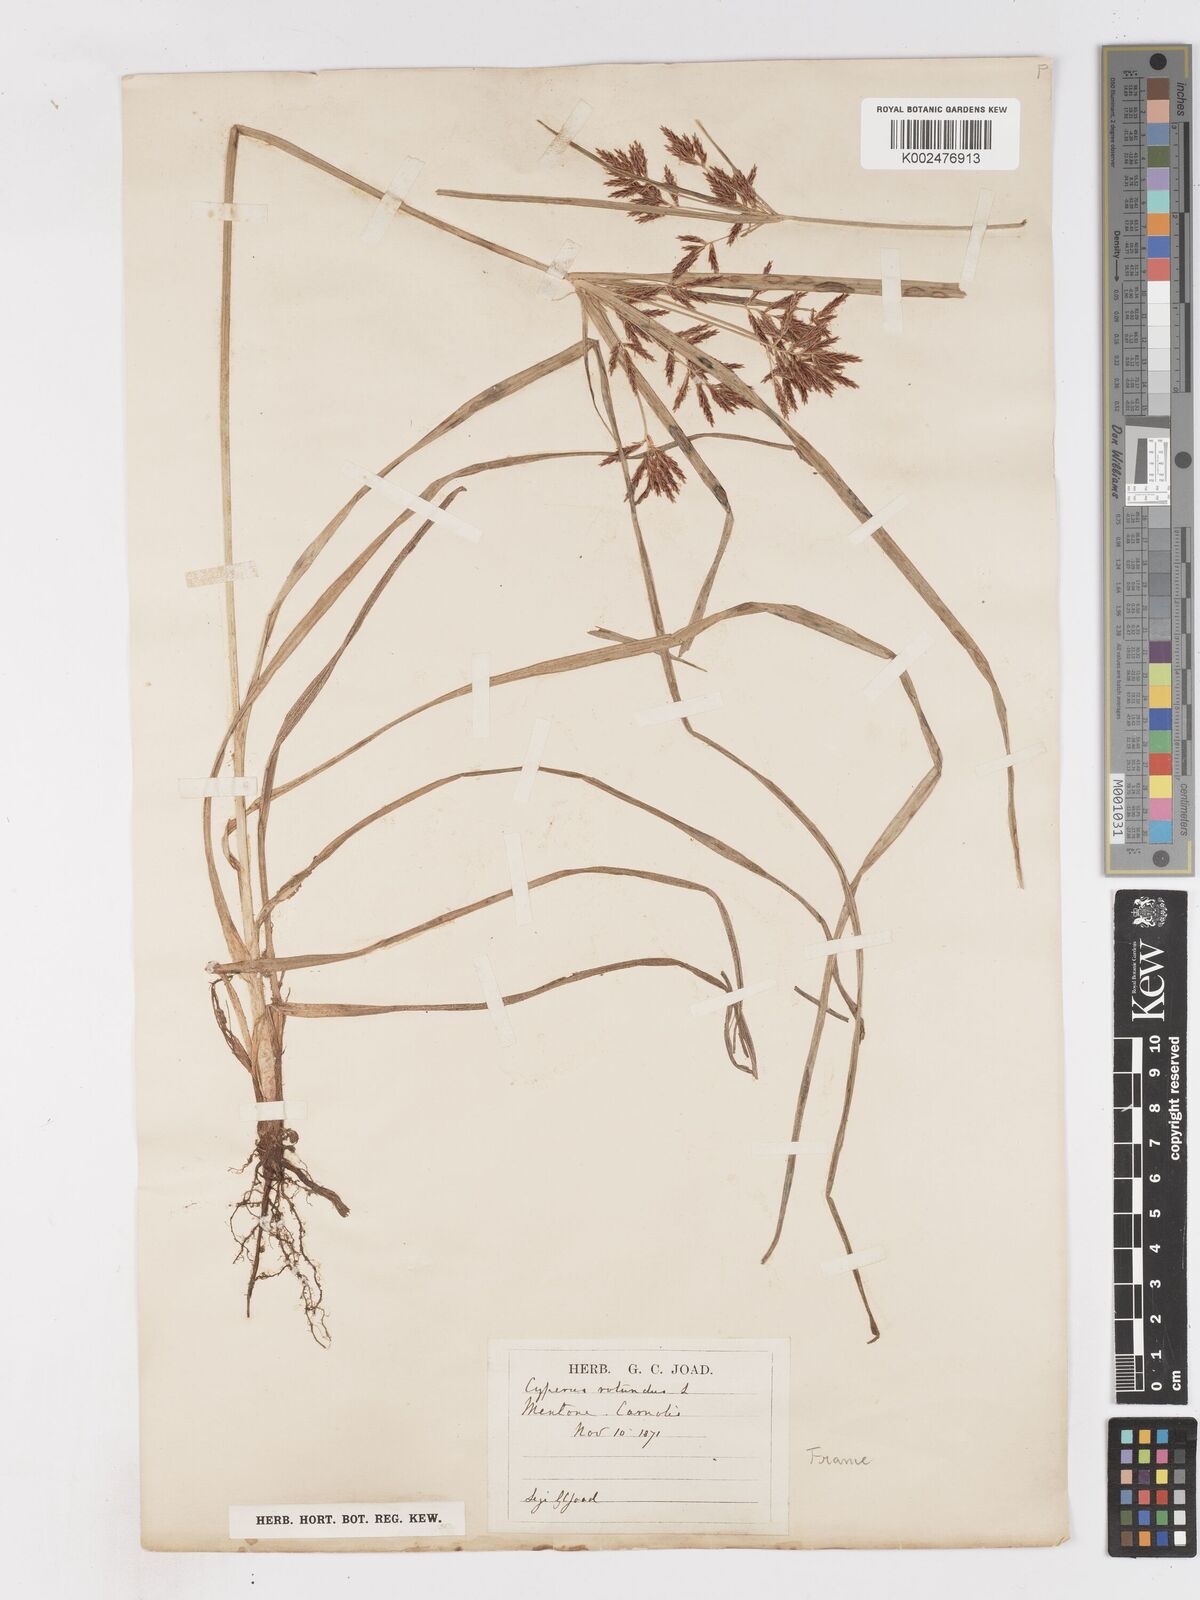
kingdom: Plantae
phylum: Tracheophyta
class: Liliopsida
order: Poales
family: Cyperaceae
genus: Cyperus
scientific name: Cyperus rotundus
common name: Nutgrass
